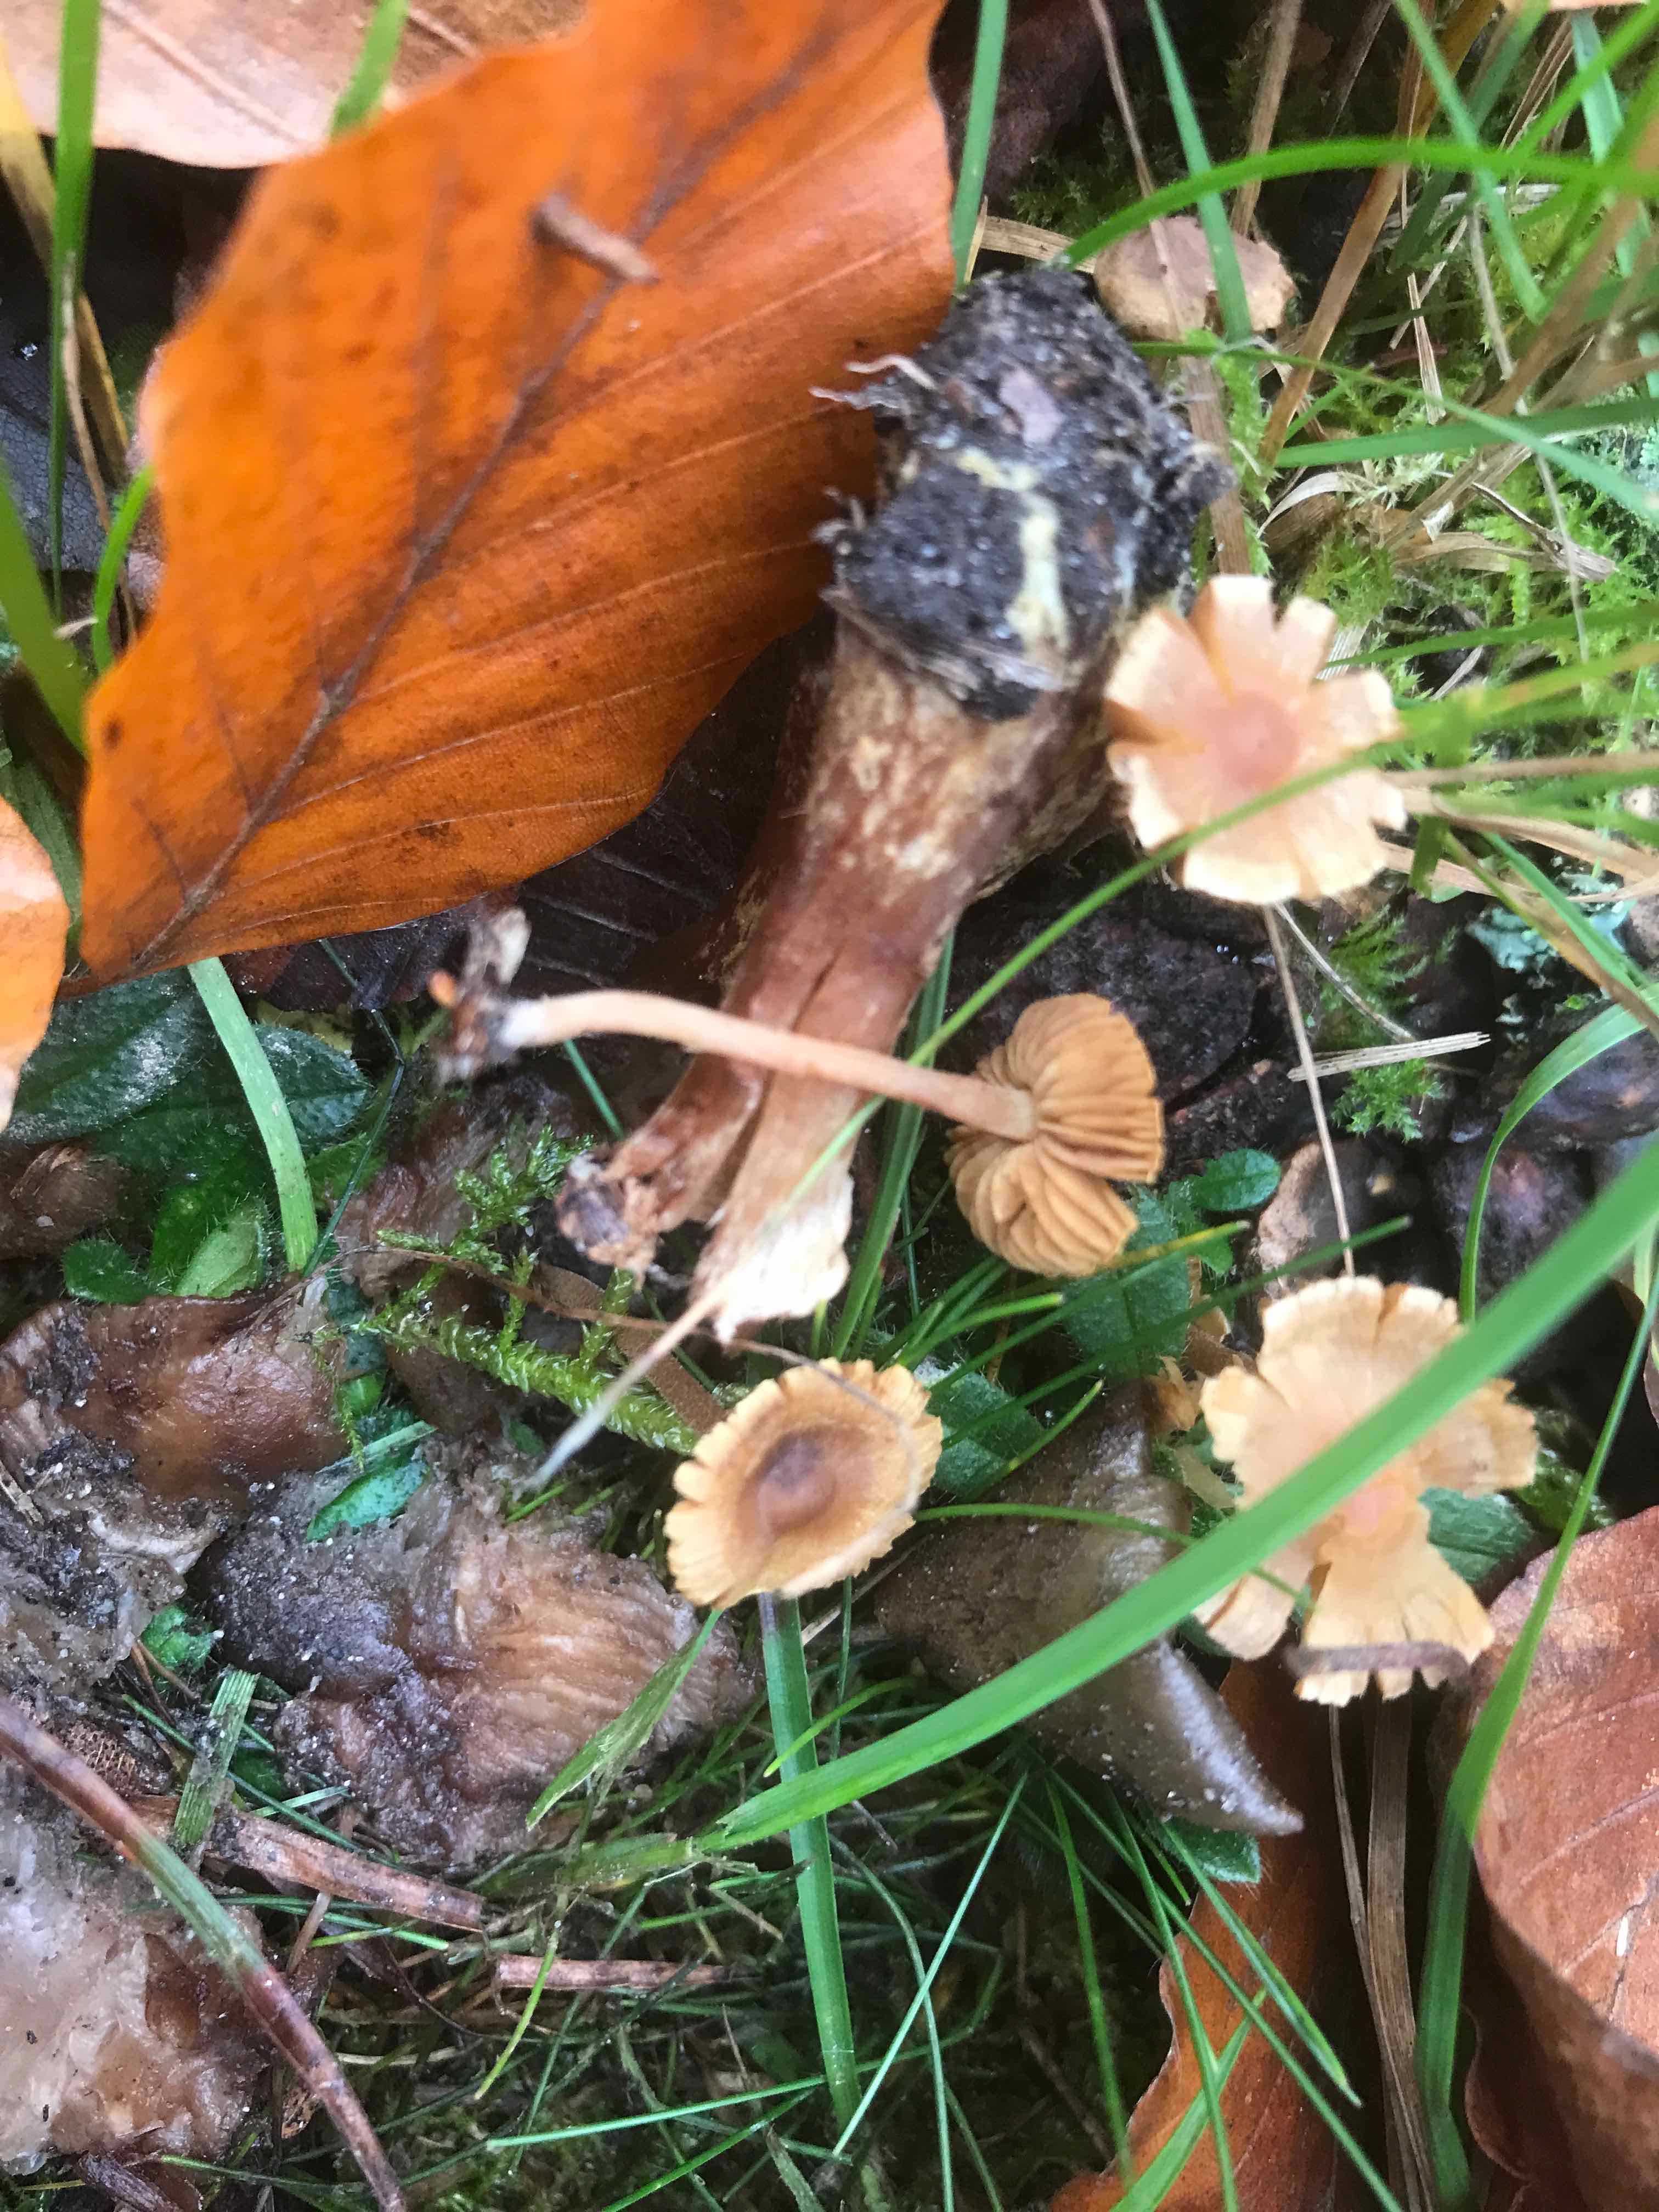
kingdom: Fungi
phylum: Basidiomycota
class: Agaricomycetes
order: Agaricales
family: Inocybaceae
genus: Inocybe
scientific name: Inocybe
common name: trævlhat
